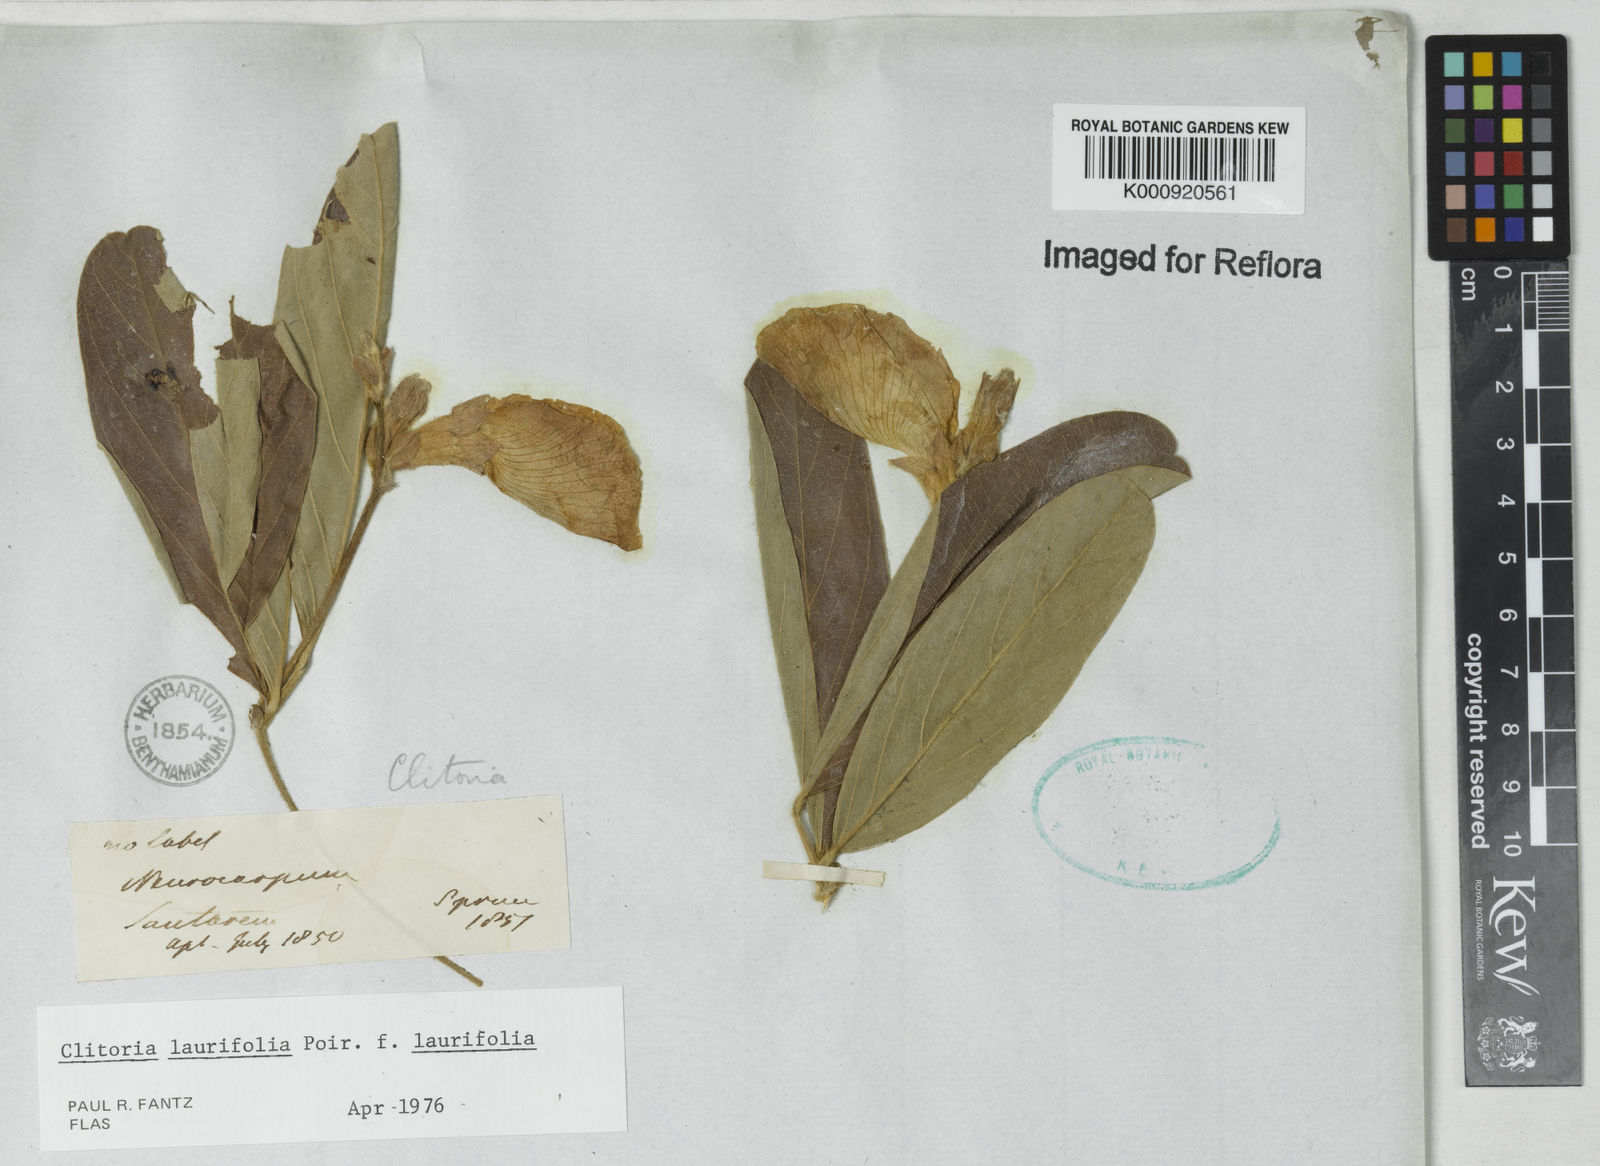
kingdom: Plantae
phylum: Tracheophyta
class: Magnoliopsida
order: Fabales
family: Fabaceae
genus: Clitoria
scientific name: Clitoria laurifolia
